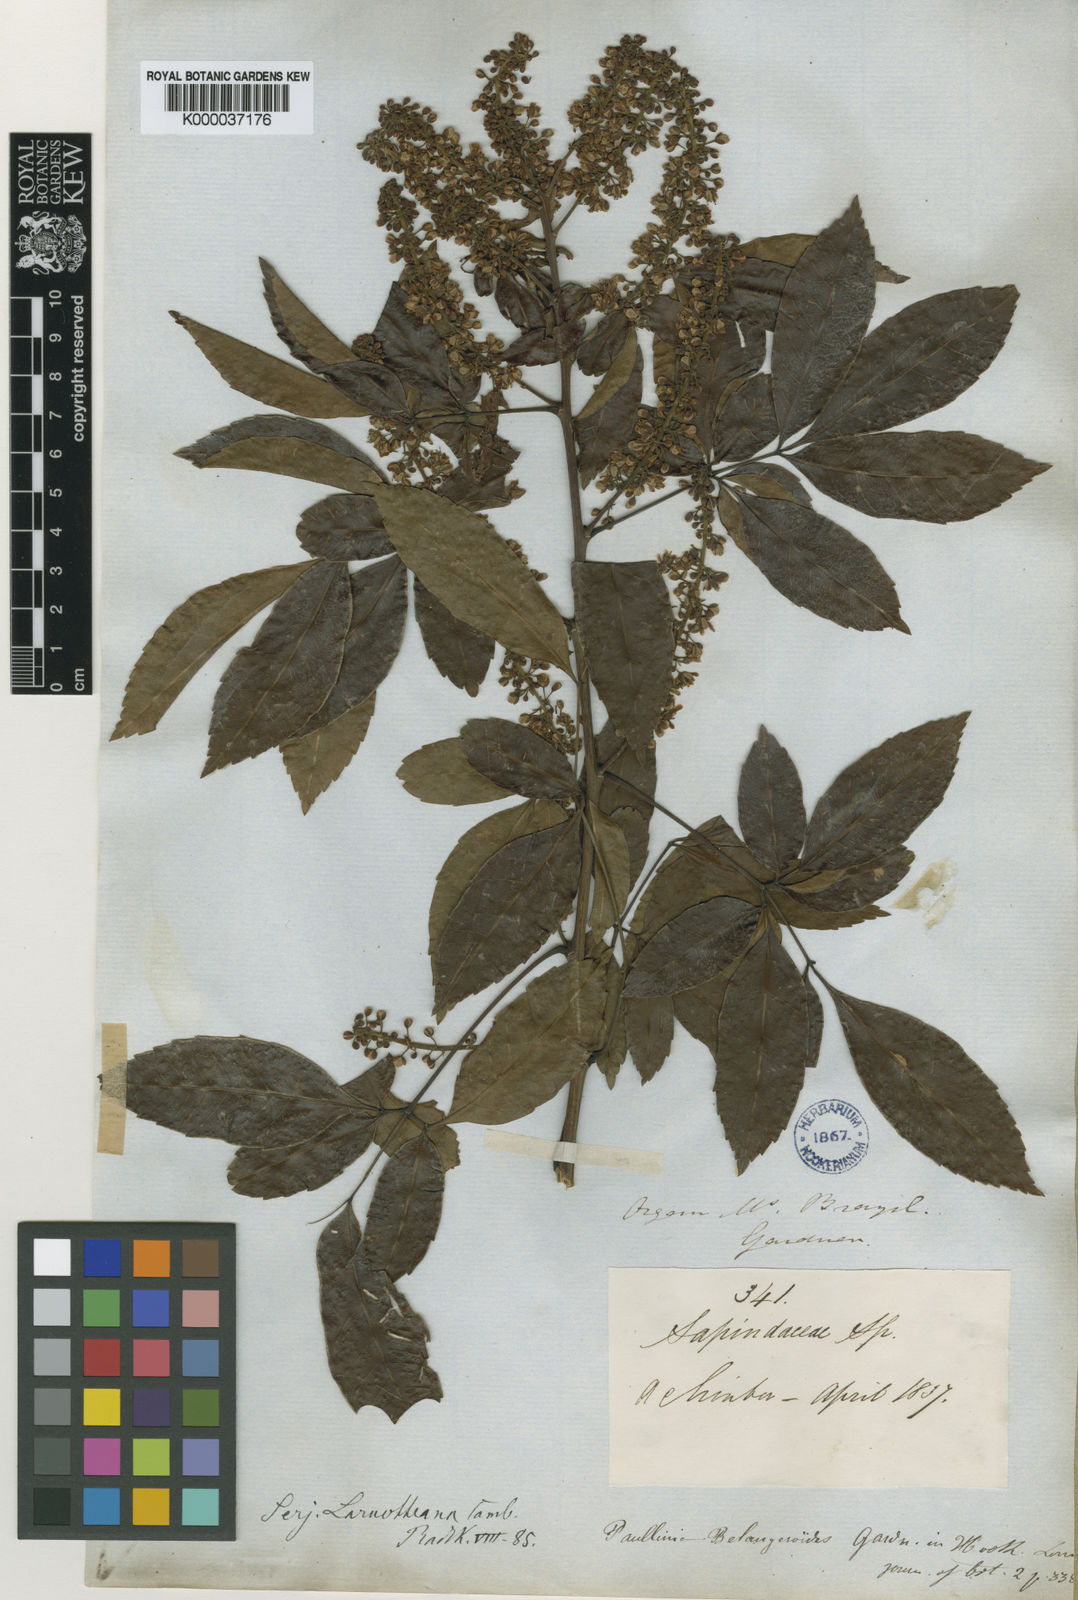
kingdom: Plantae
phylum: Tracheophyta
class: Magnoliopsida
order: Sapindales
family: Sapindaceae
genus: Serjania
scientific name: Serjania laruotteana
